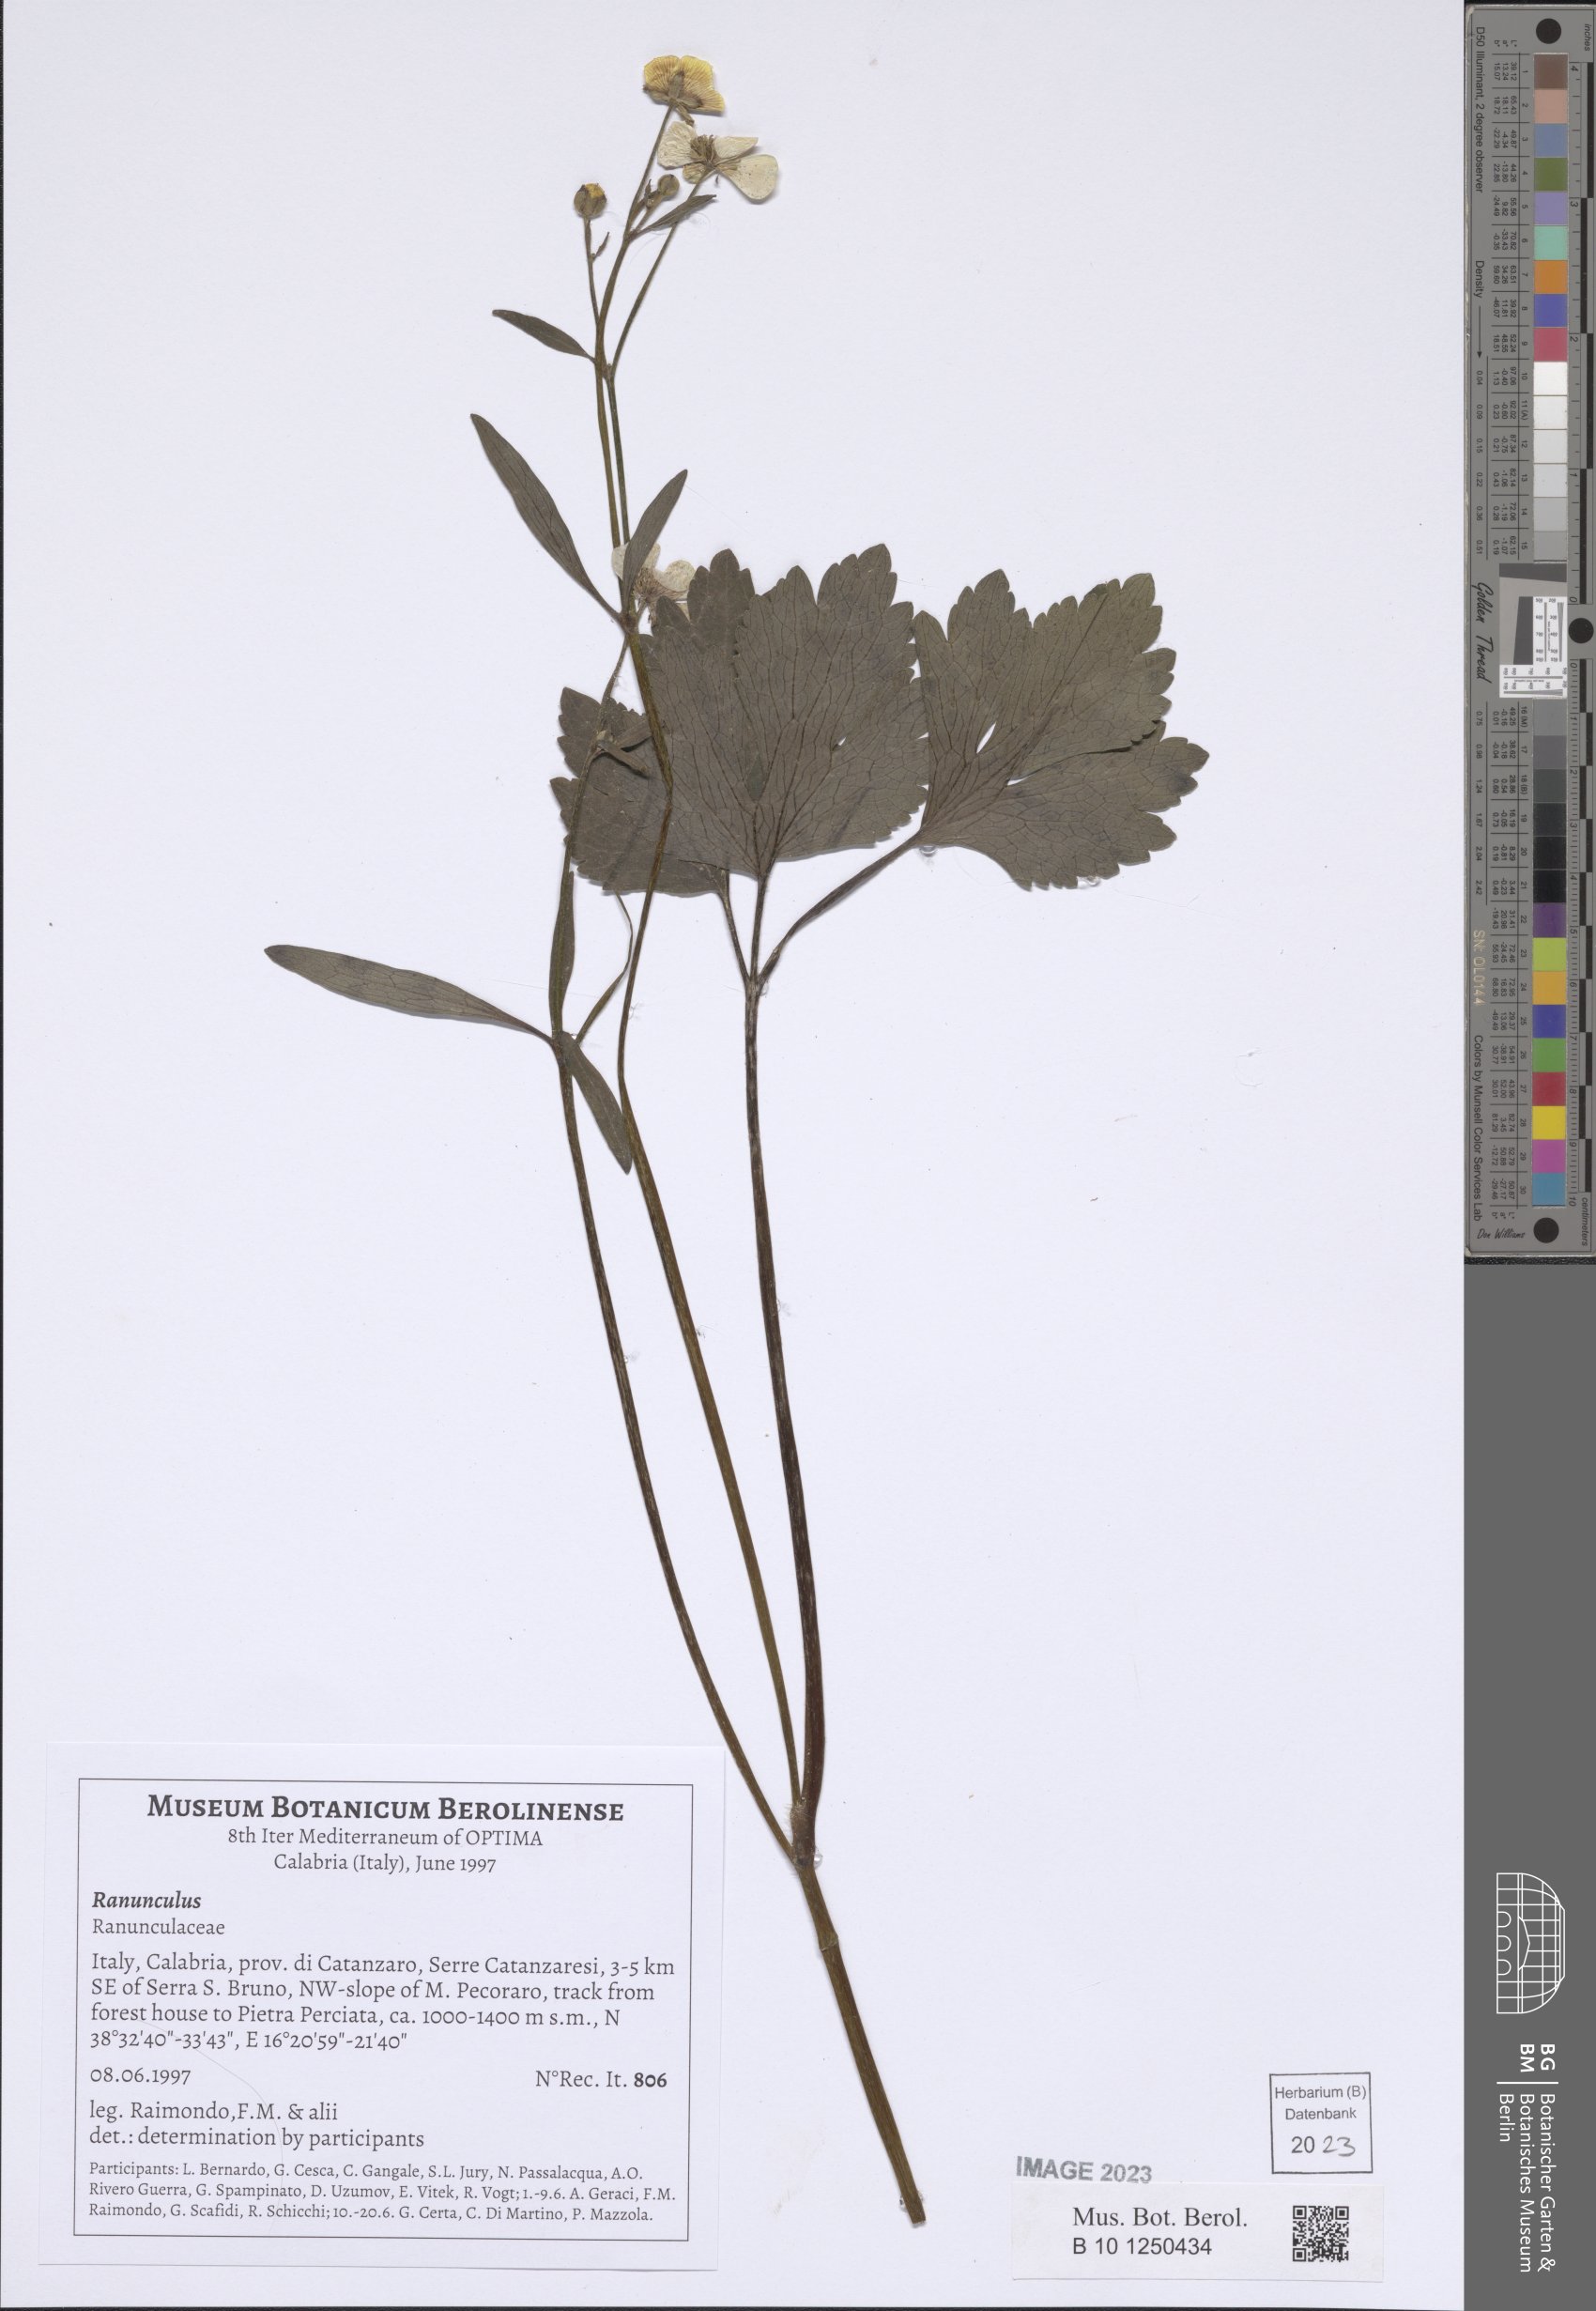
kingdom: Plantae
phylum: Tracheophyta
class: Magnoliopsida
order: Ranunculales
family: Ranunculaceae
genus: Ranunculus
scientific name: Ranunculus
